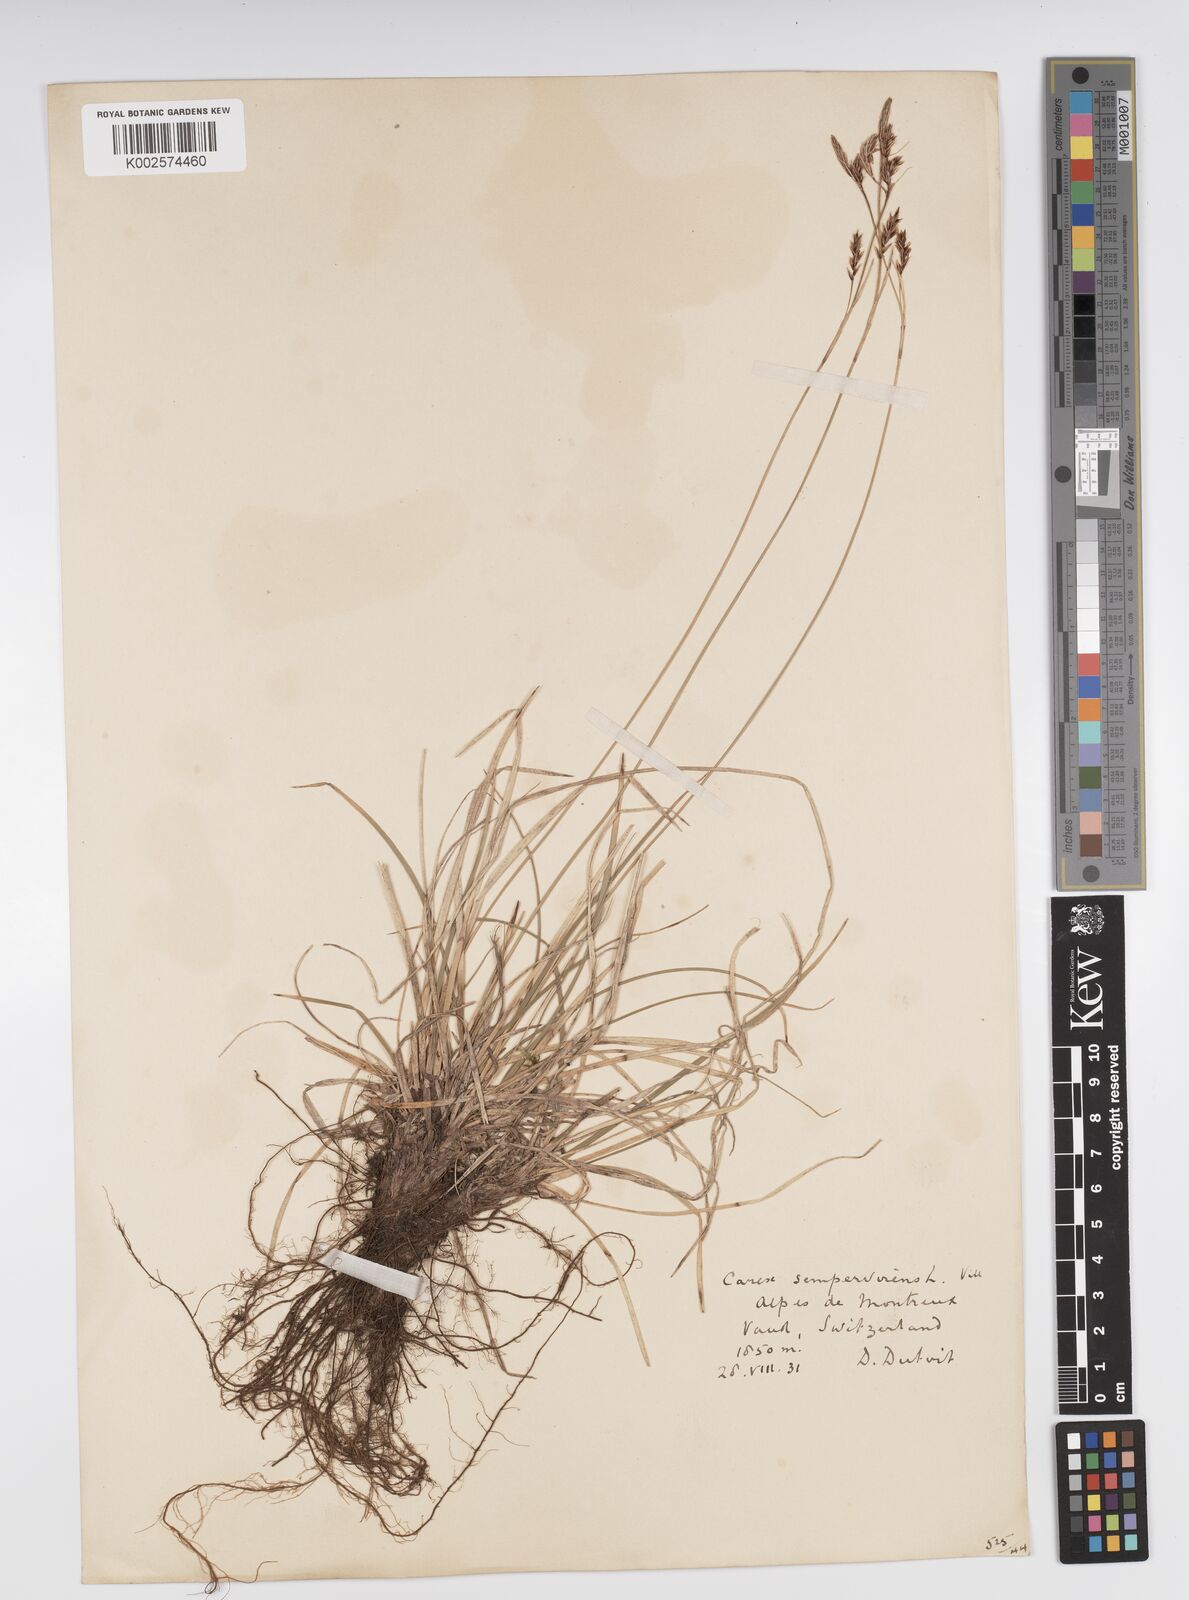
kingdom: Plantae
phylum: Tracheophyta
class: Liliopsida
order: Poales
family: Cyperaceae
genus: Carex
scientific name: Carex sempervirens
